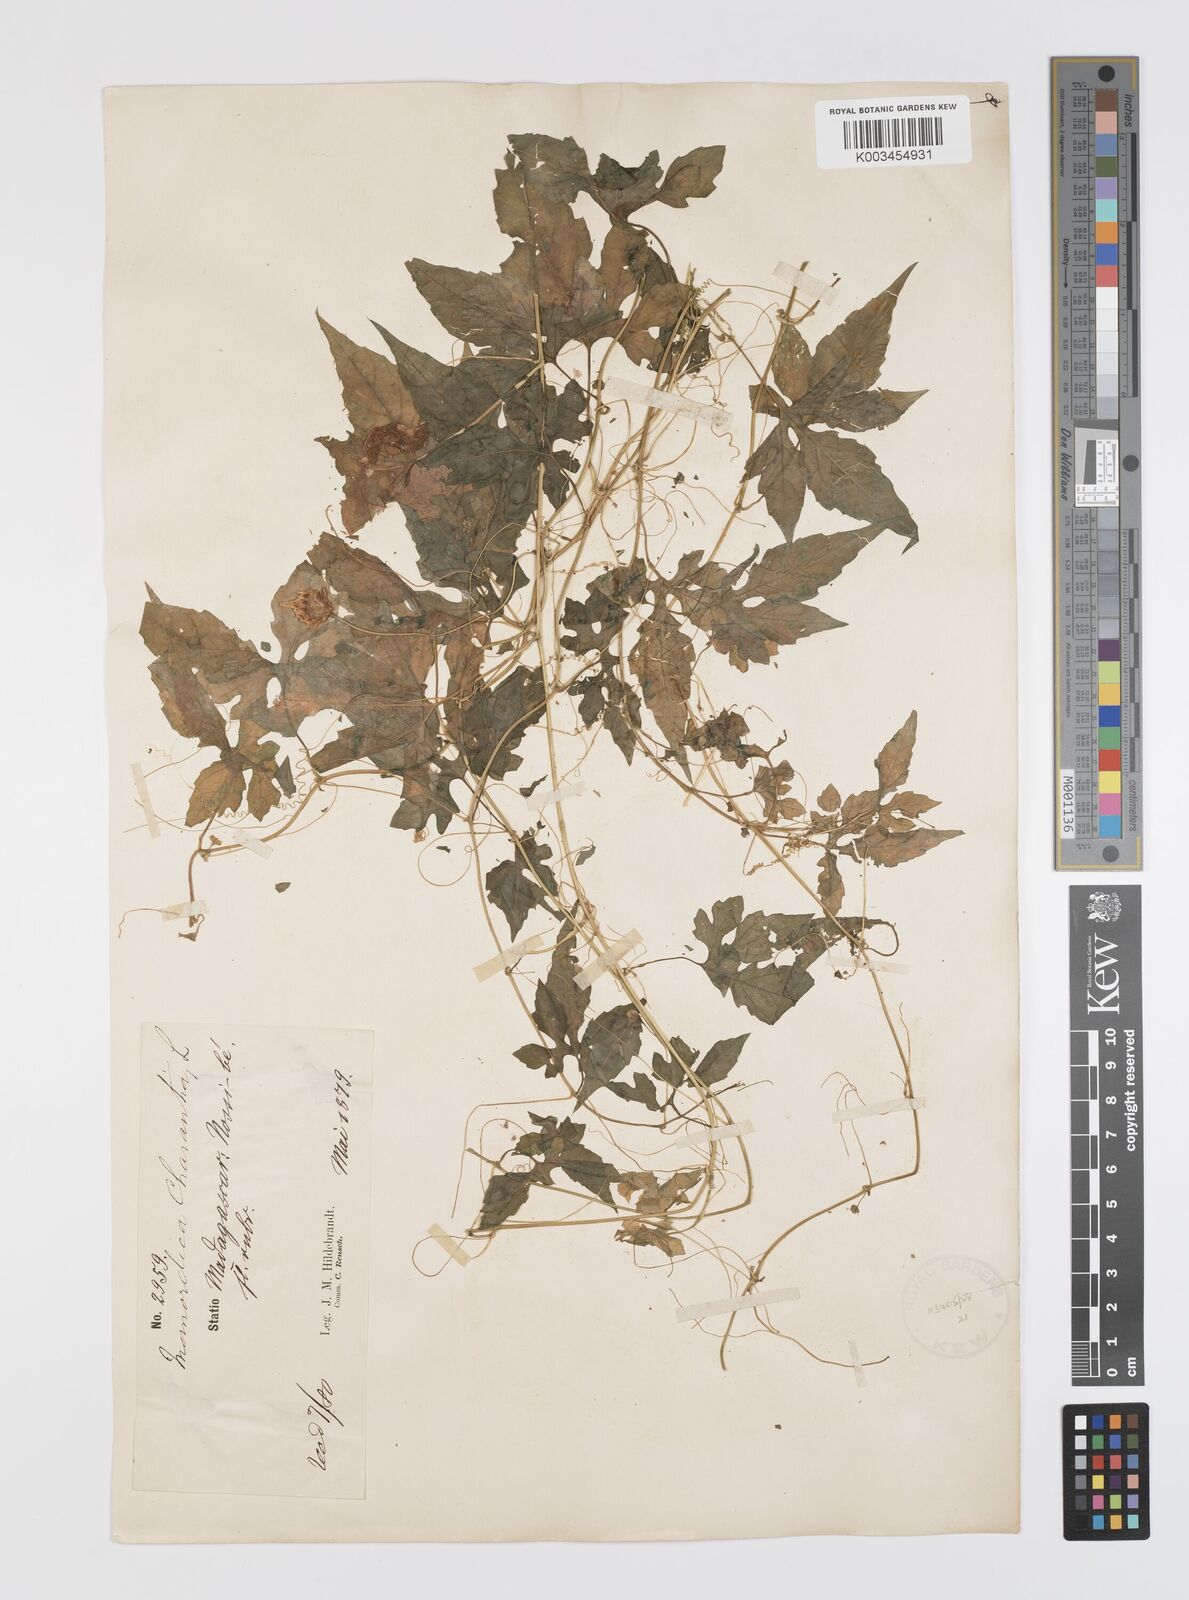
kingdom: Plantae
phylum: Tracheophyta
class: Magnoliopsida
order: Cucurbitales
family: Cucurbitaceae
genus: Momordica
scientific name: Momordica charantia
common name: Balsampear
